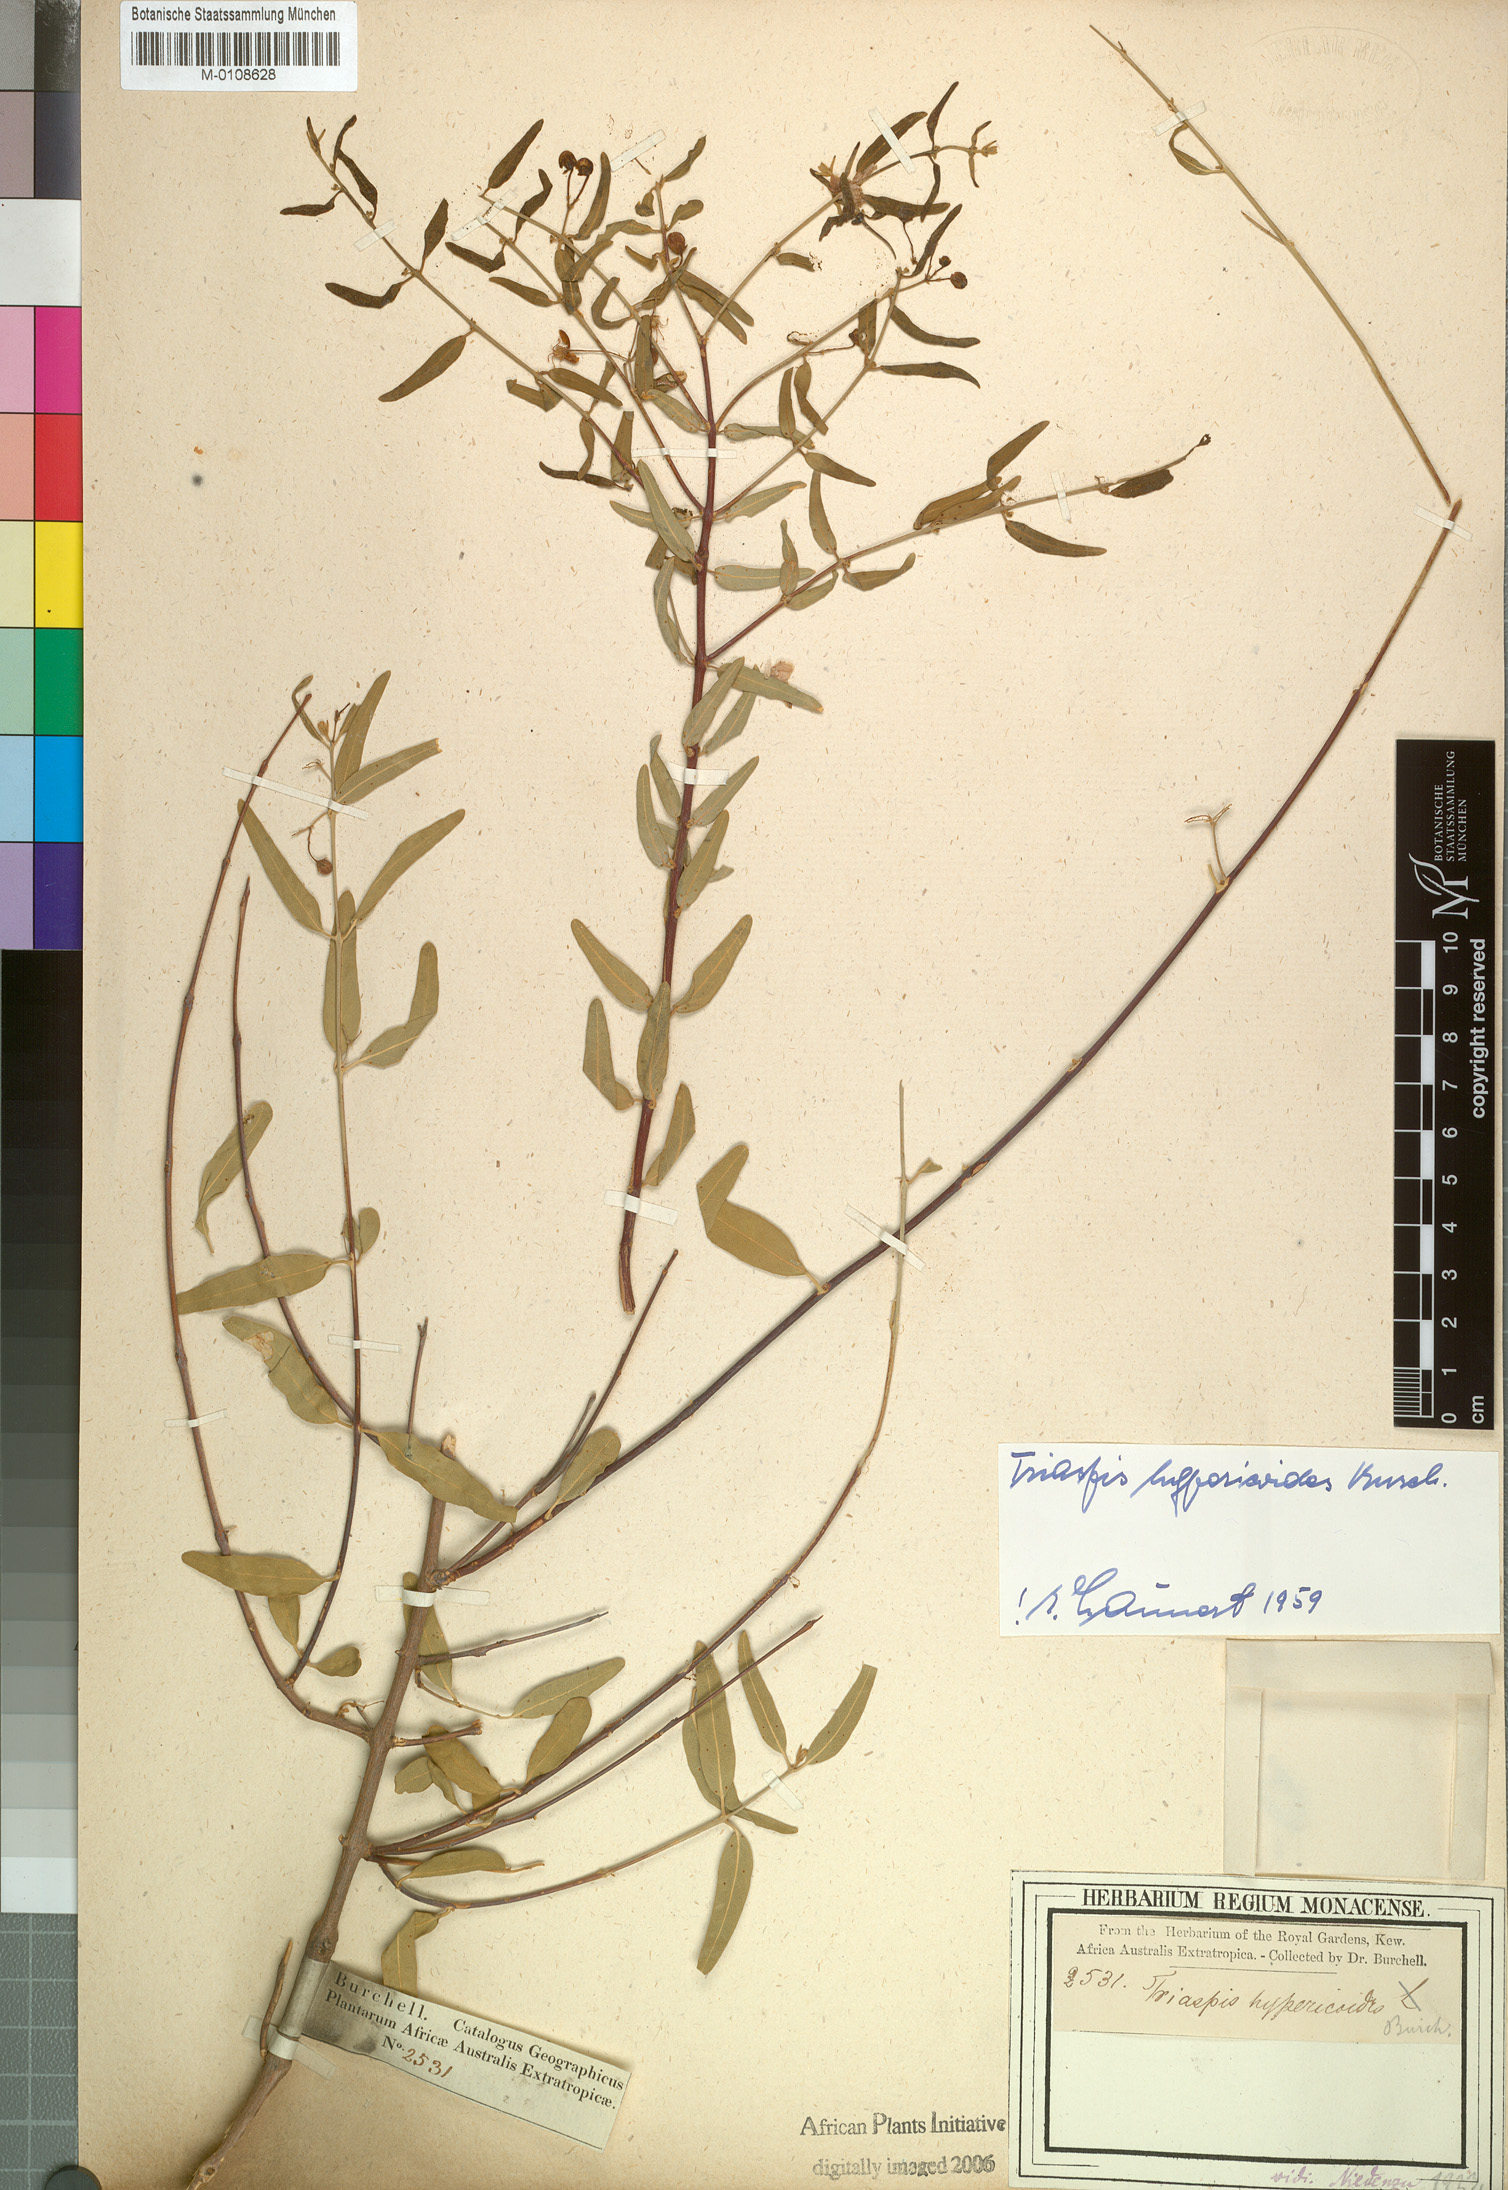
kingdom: Plantae
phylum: Tracheophyta
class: Magnoliopsida
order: Malpighiales
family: Malpighiaceae
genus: Triaspis
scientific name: Triaspis hypericoides
